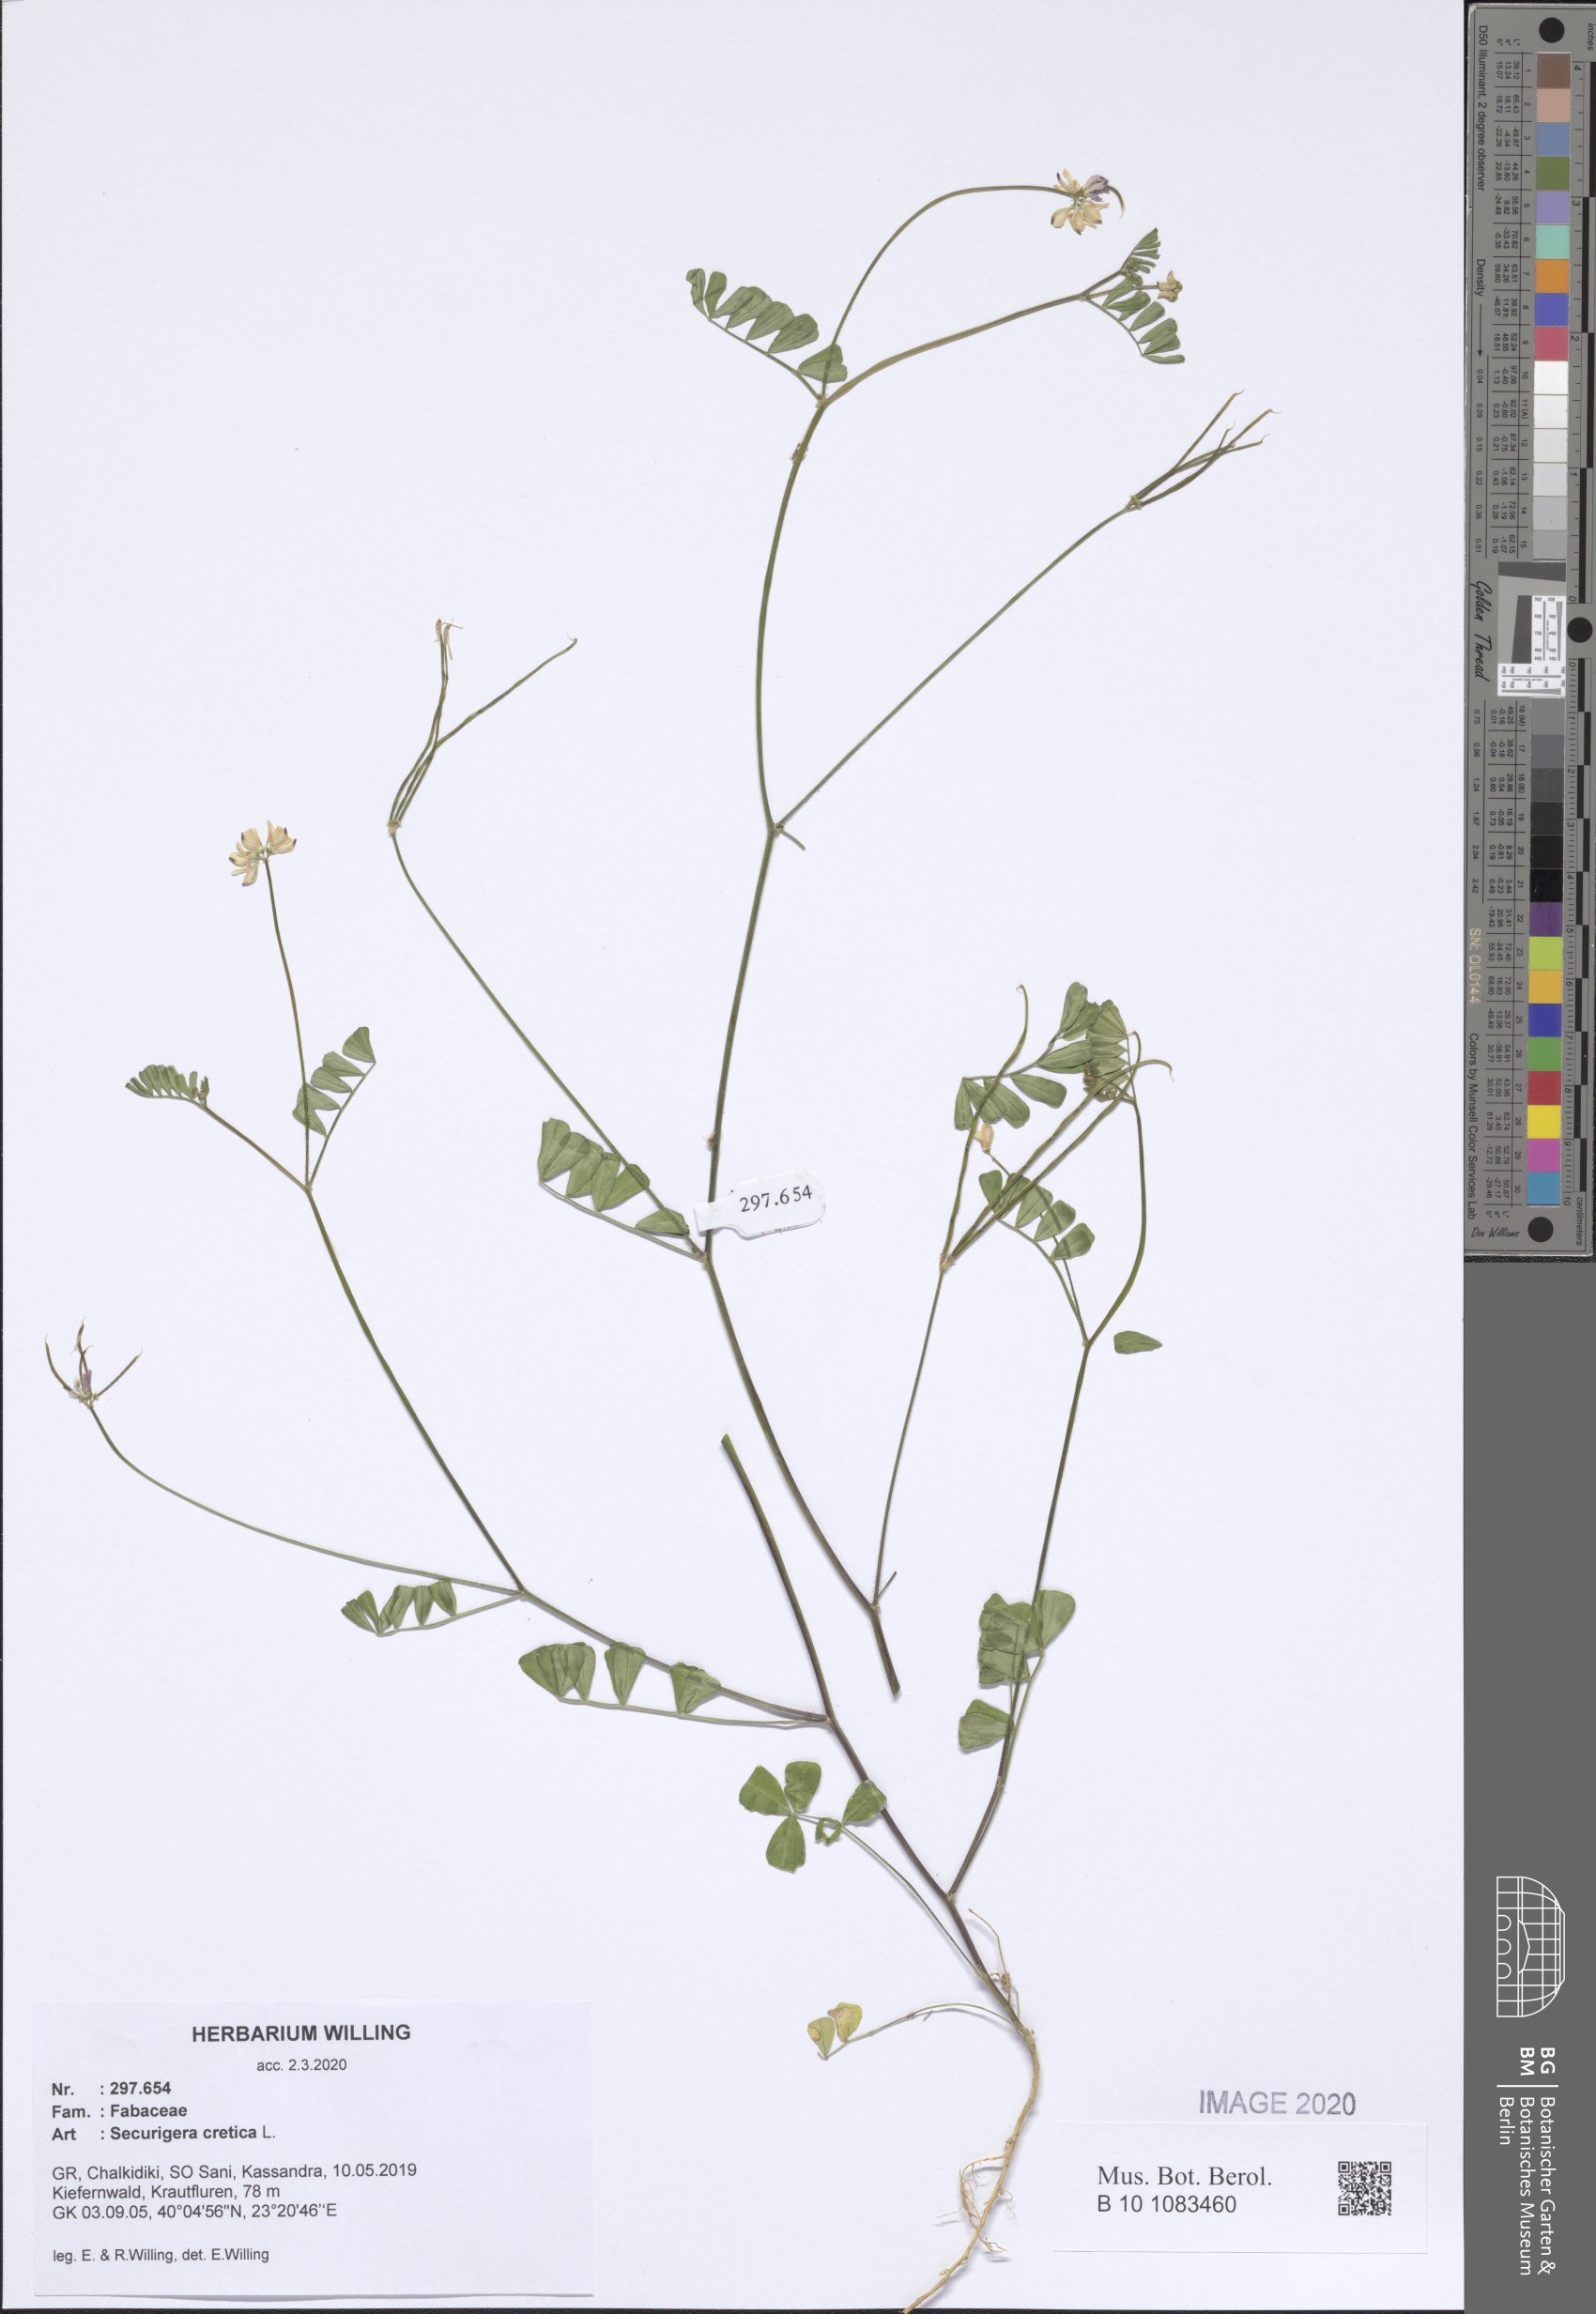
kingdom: Plantae
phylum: Tracheophyta
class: Magnoliopsida
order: Fabales
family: Fabaceae
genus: Coronilla
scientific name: Coronilla cretica
